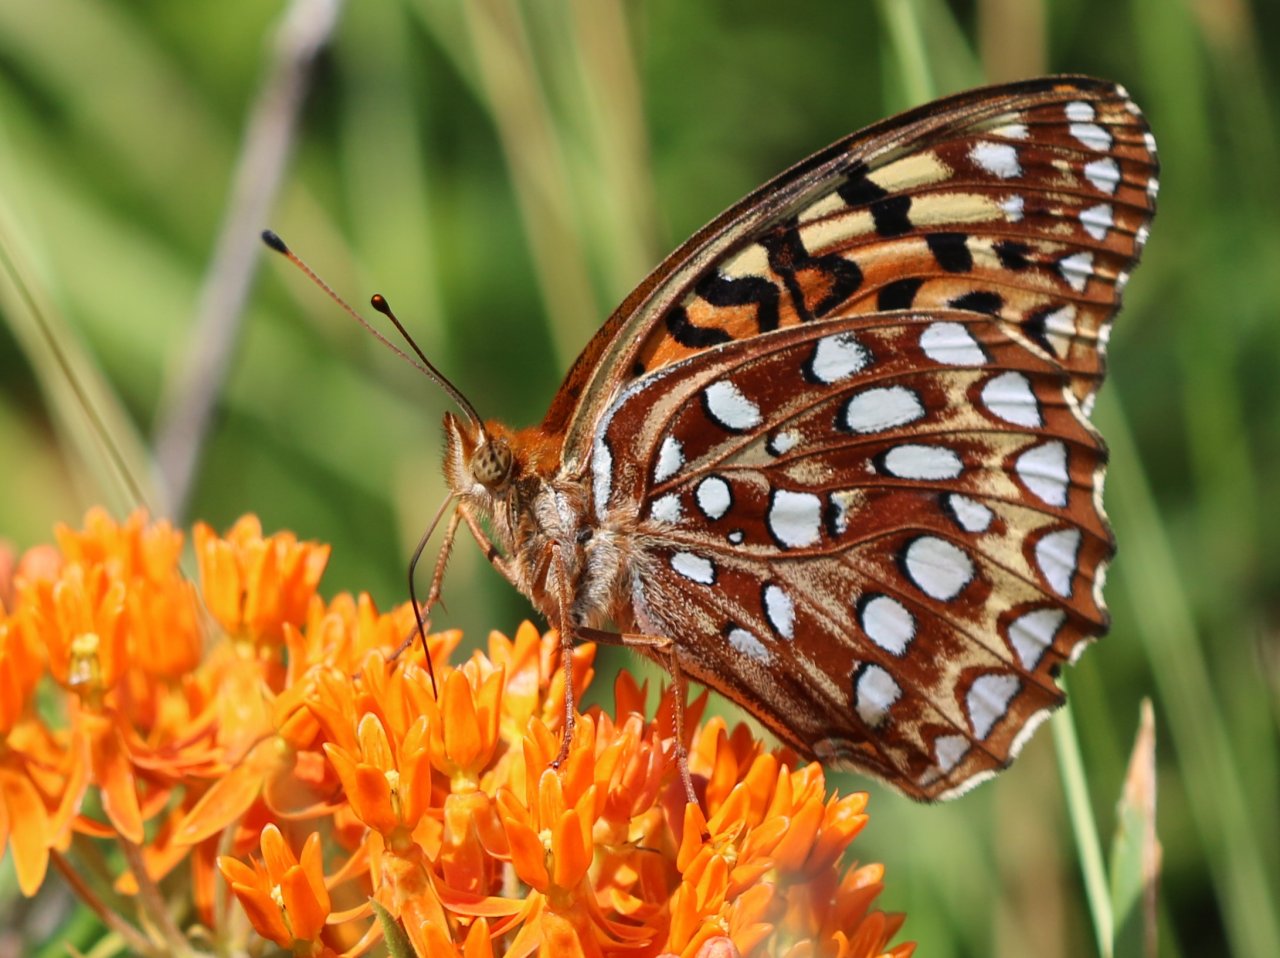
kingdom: Animalia
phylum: Arthropoda
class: Insecta
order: Lepidoptera
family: Nymphalidae
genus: Speyeria
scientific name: Speyeria aphrodite
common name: Aphrodite Fritillary
